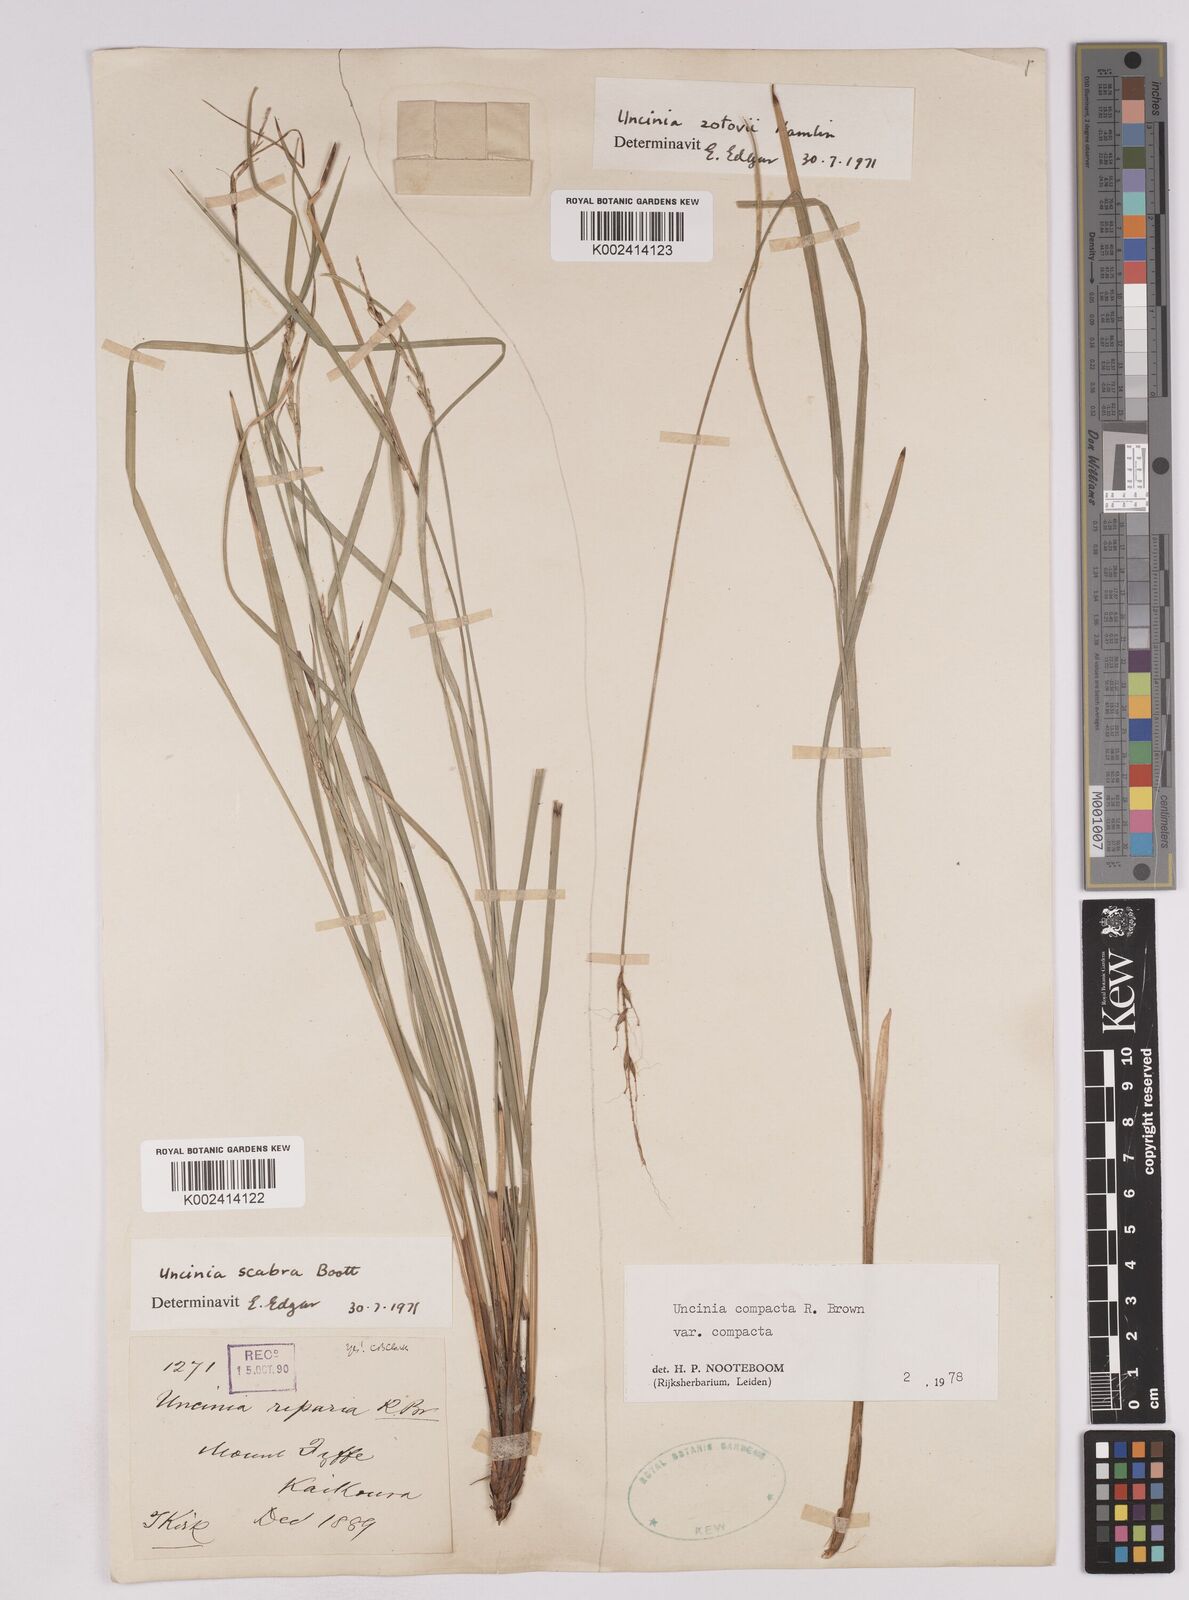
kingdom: Plantae
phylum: Tracheophyta
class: Liliopsida
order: Poales
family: Cyperaceae
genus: Carex
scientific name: Carex austrocompacta
